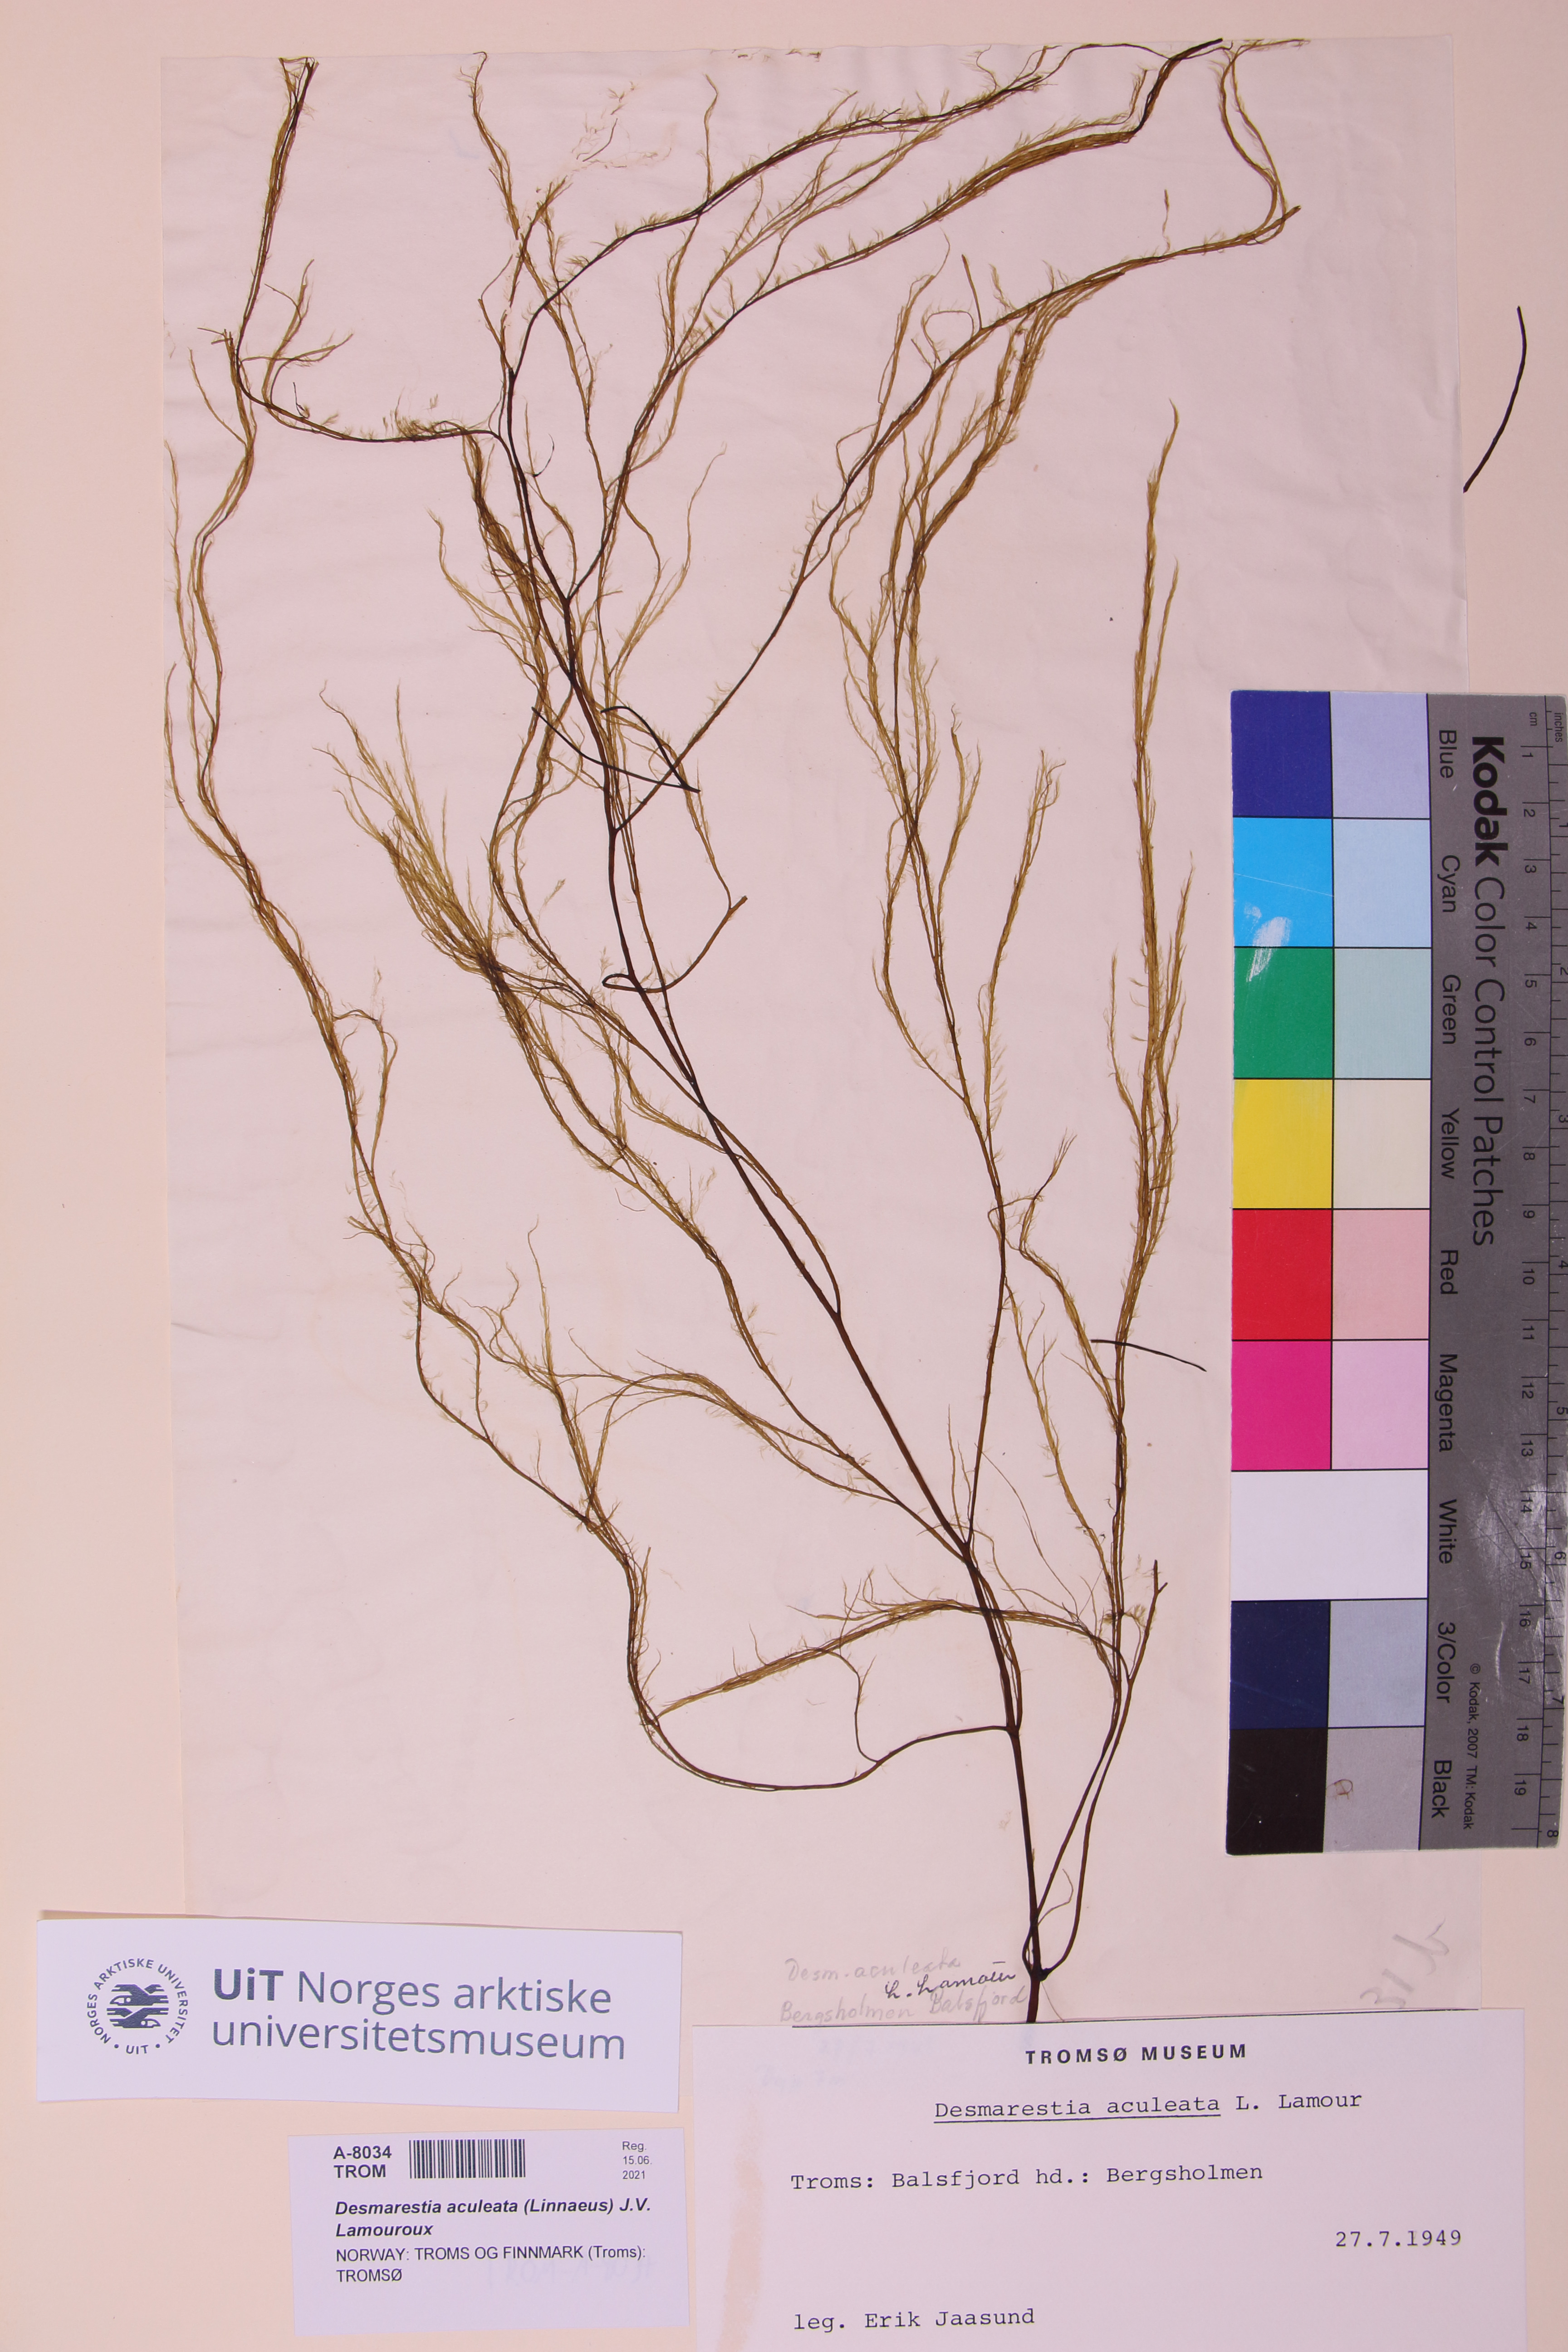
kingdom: Chromista
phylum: Ochrophyta
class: Phaeophyceae
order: Desmarestiales
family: Desmarestiaceae
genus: Desmarestia
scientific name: Desmarestia aculeata
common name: Witch's hair
